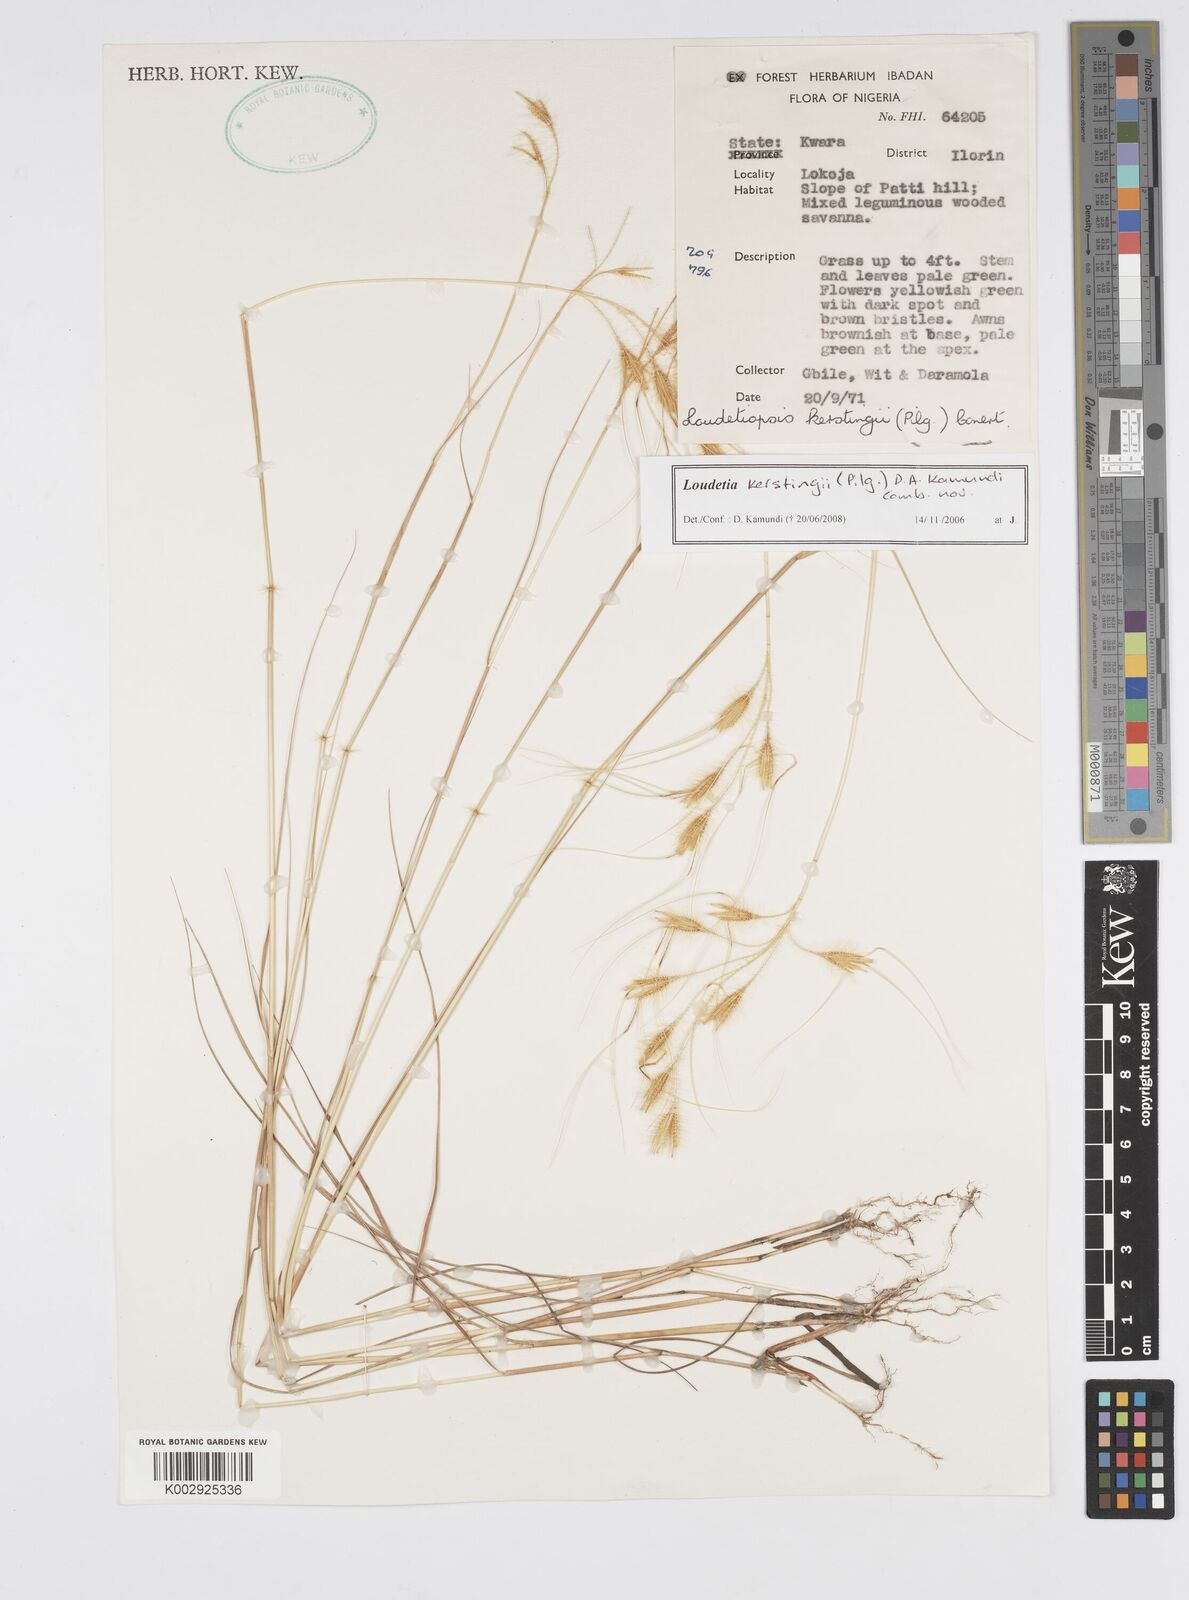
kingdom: Plantae
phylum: Tracheophyta
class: Liliopsida
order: Poales
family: Poaceae
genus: Loudetiopsis
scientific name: Loudetiopsis kerstingii
